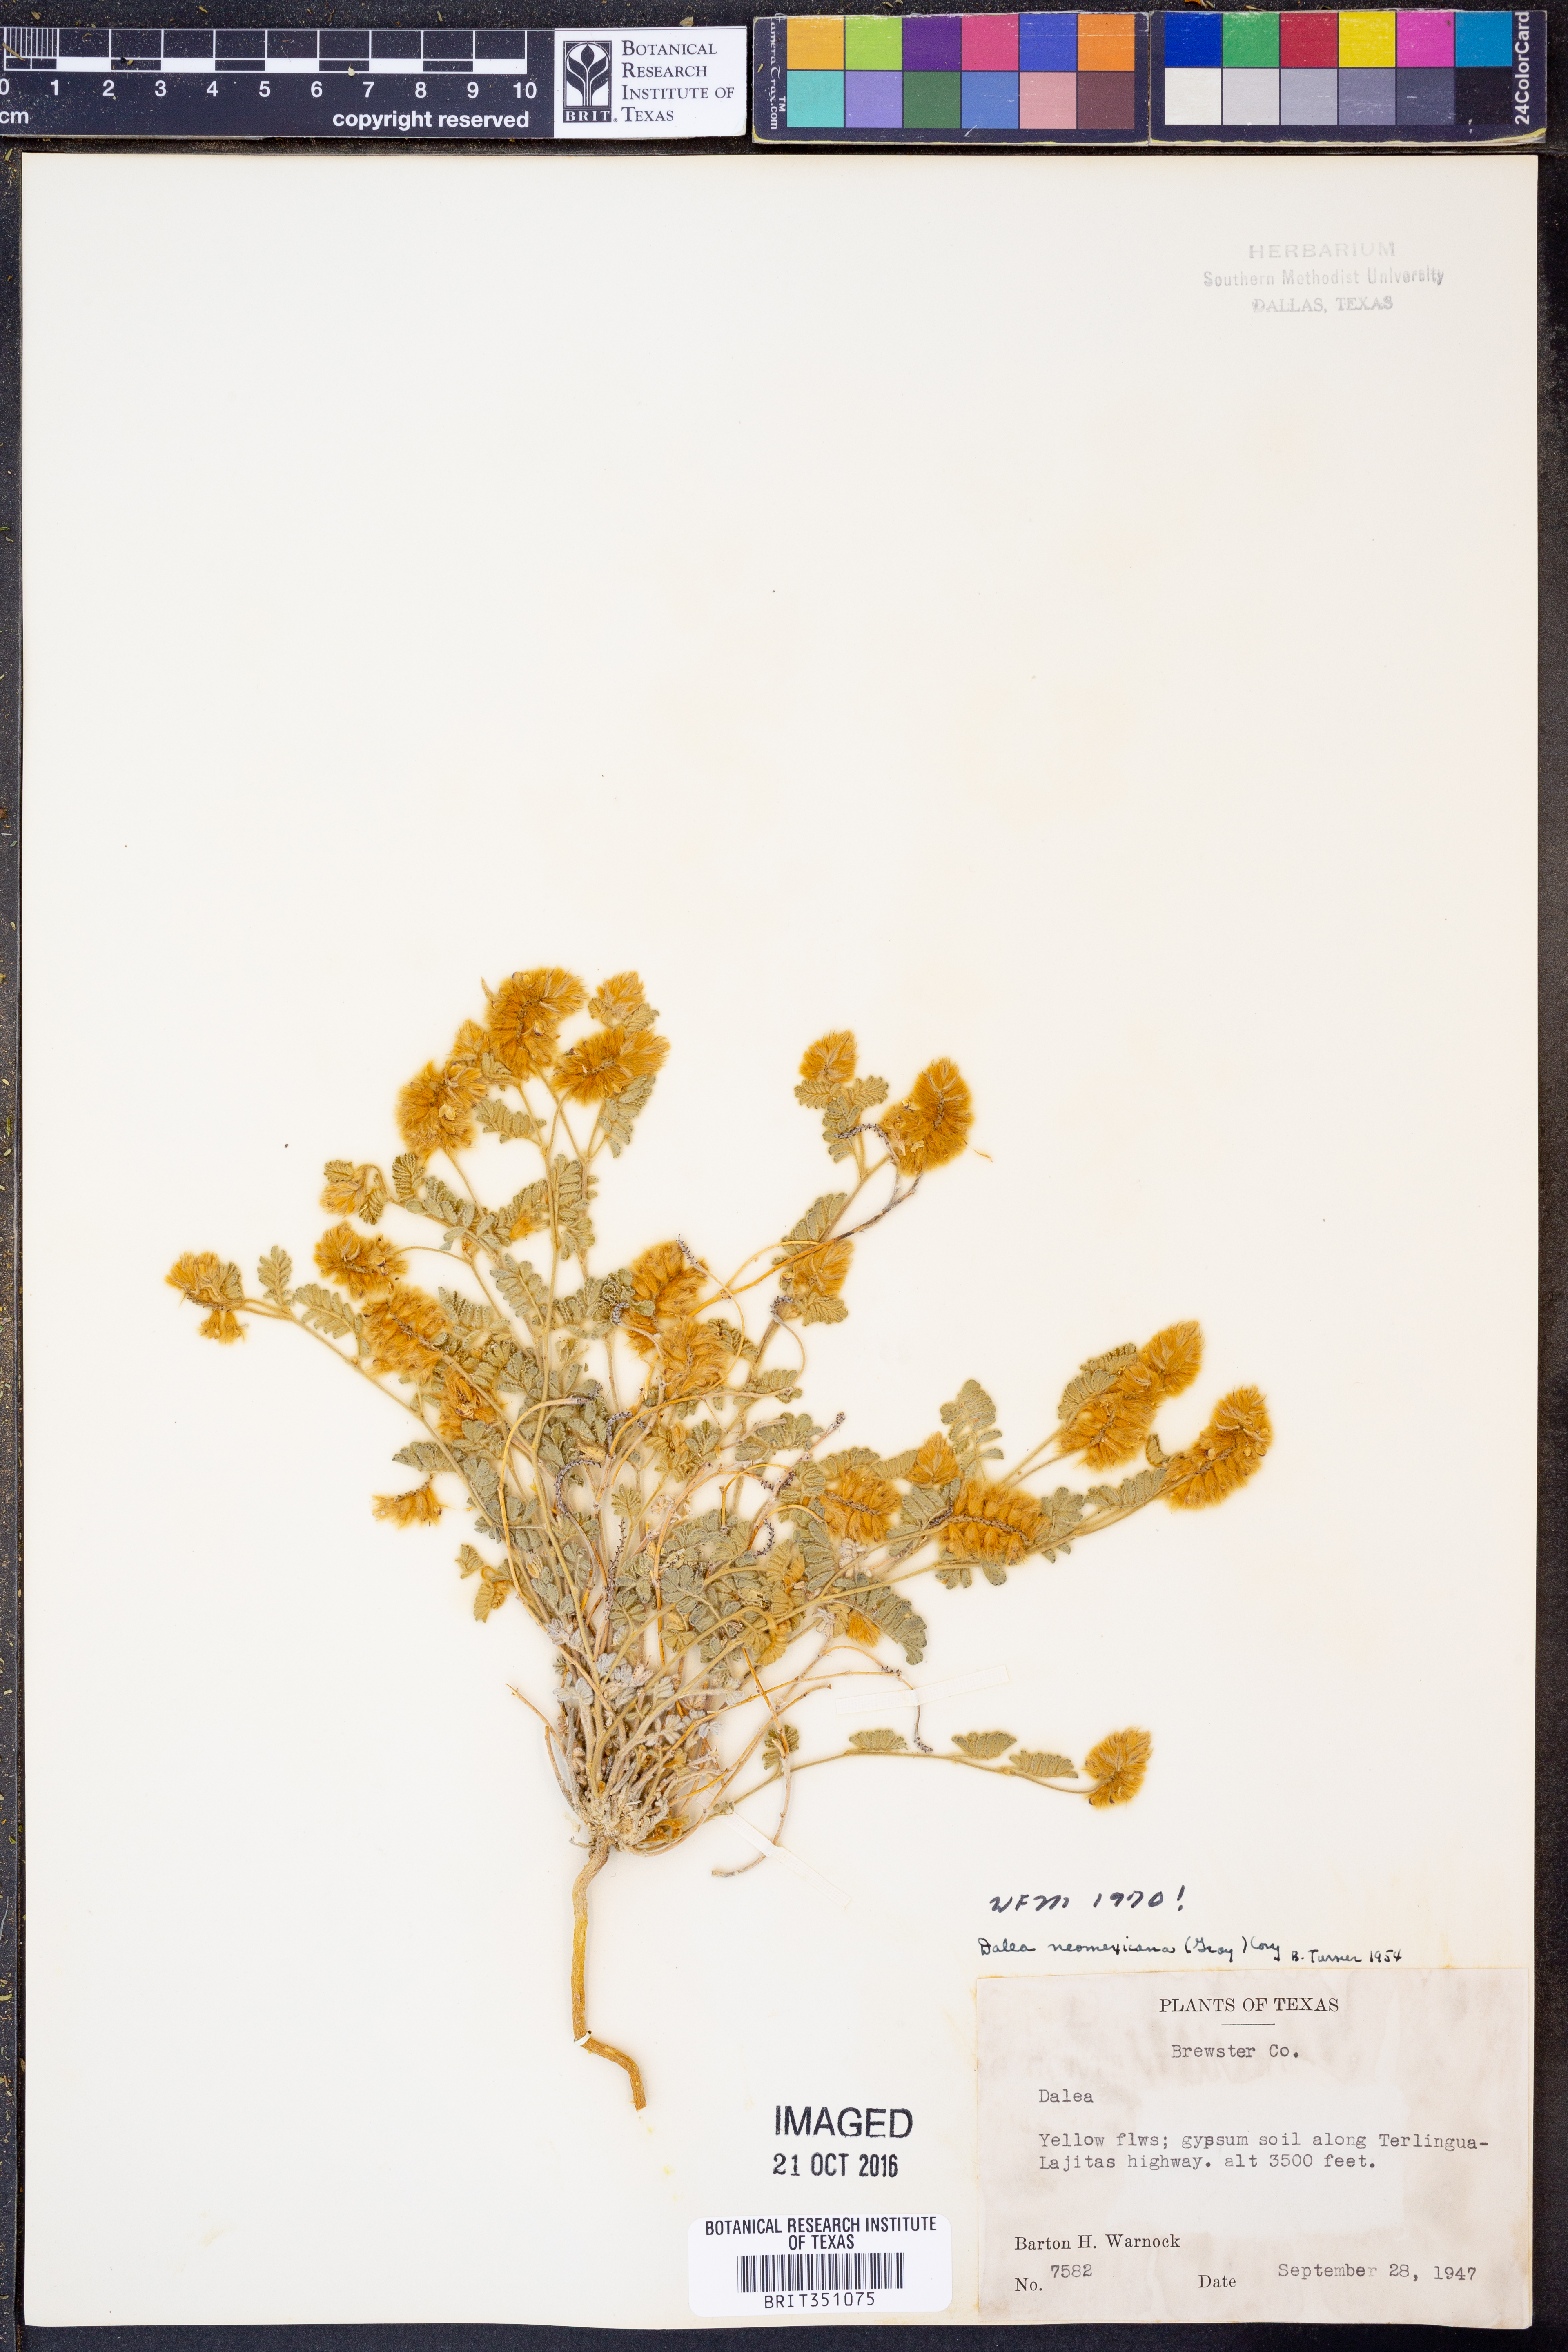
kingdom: Plantae
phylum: Tracheophyta
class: Magnoliopsida
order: Fabales
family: Fabaceae
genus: Dalea
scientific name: Dalea neomexicana
